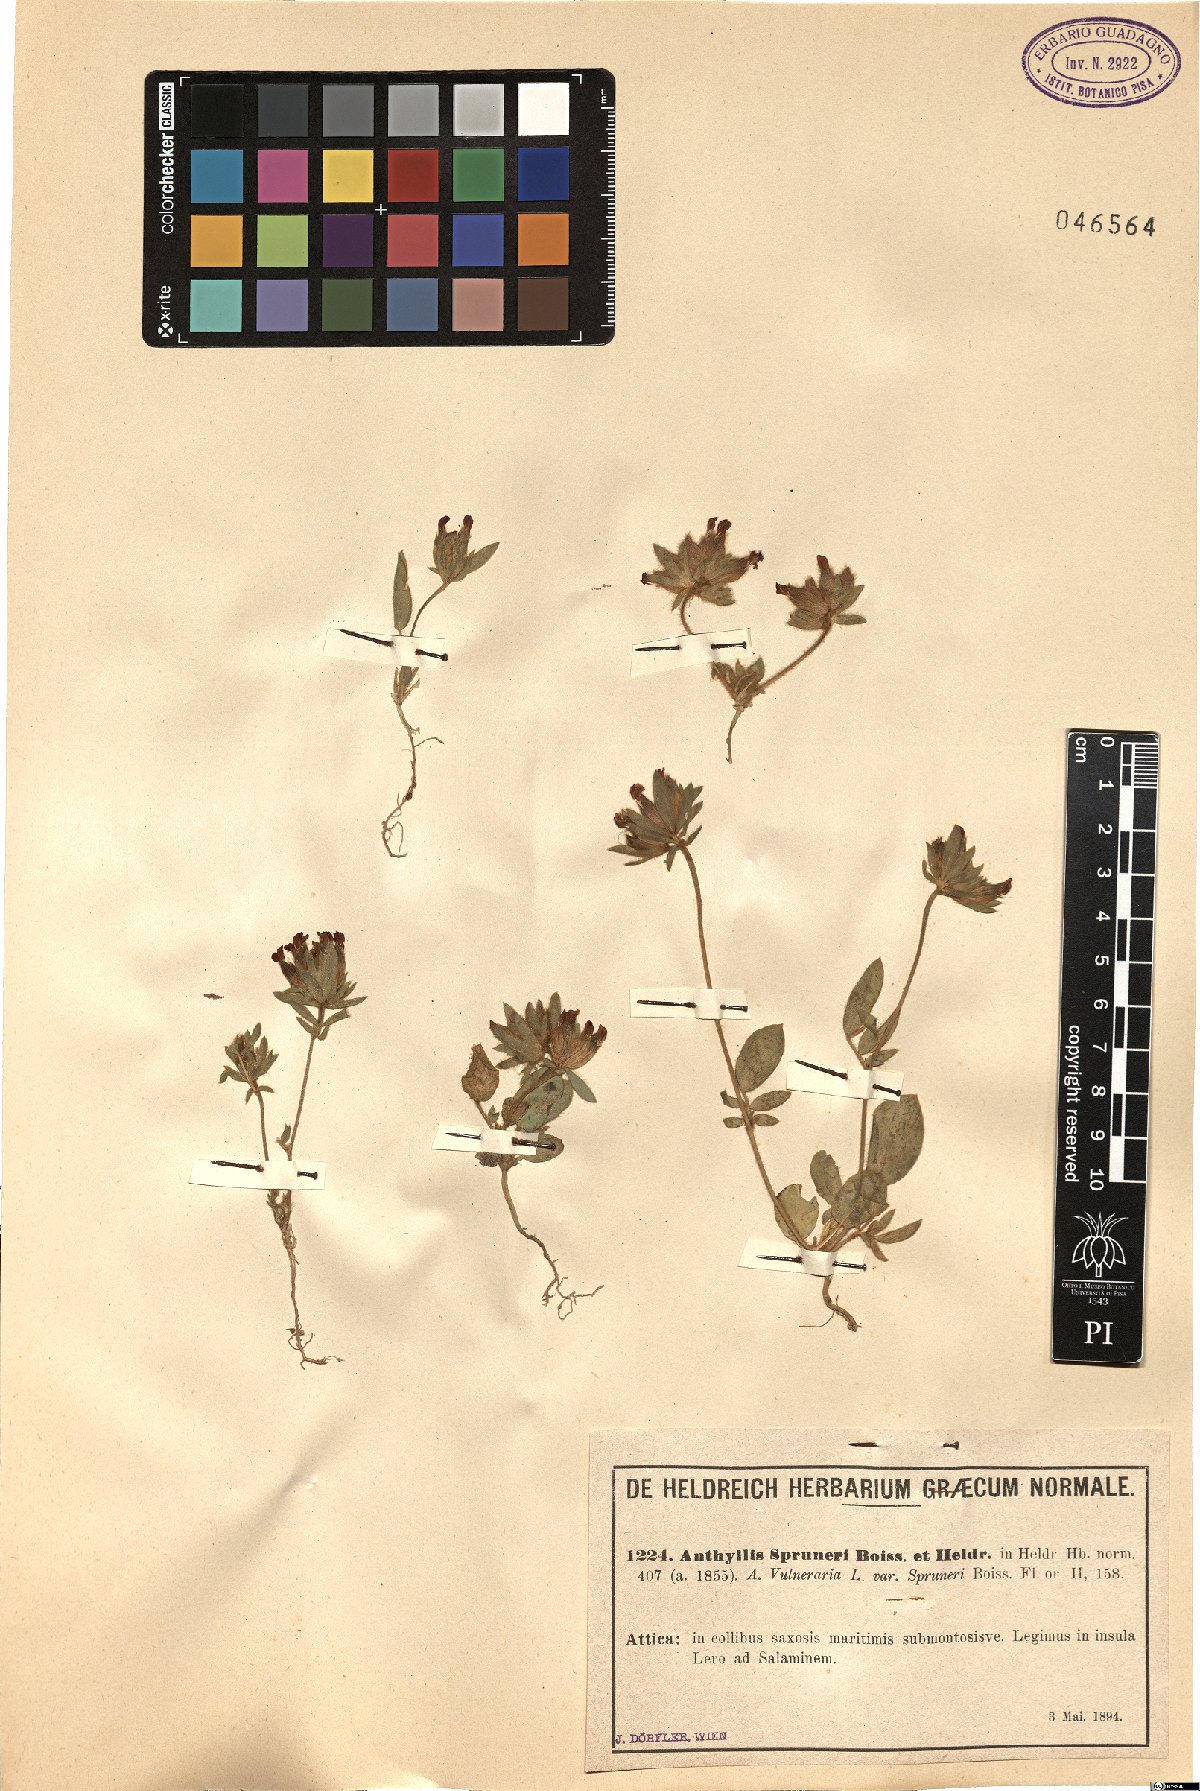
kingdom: Plantae
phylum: Tracheophyta
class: Magnoliopsida
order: Fabales
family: Fabaceae
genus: Anthyllis
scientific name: Anthyllis vulneraria
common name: Kidney vetch
